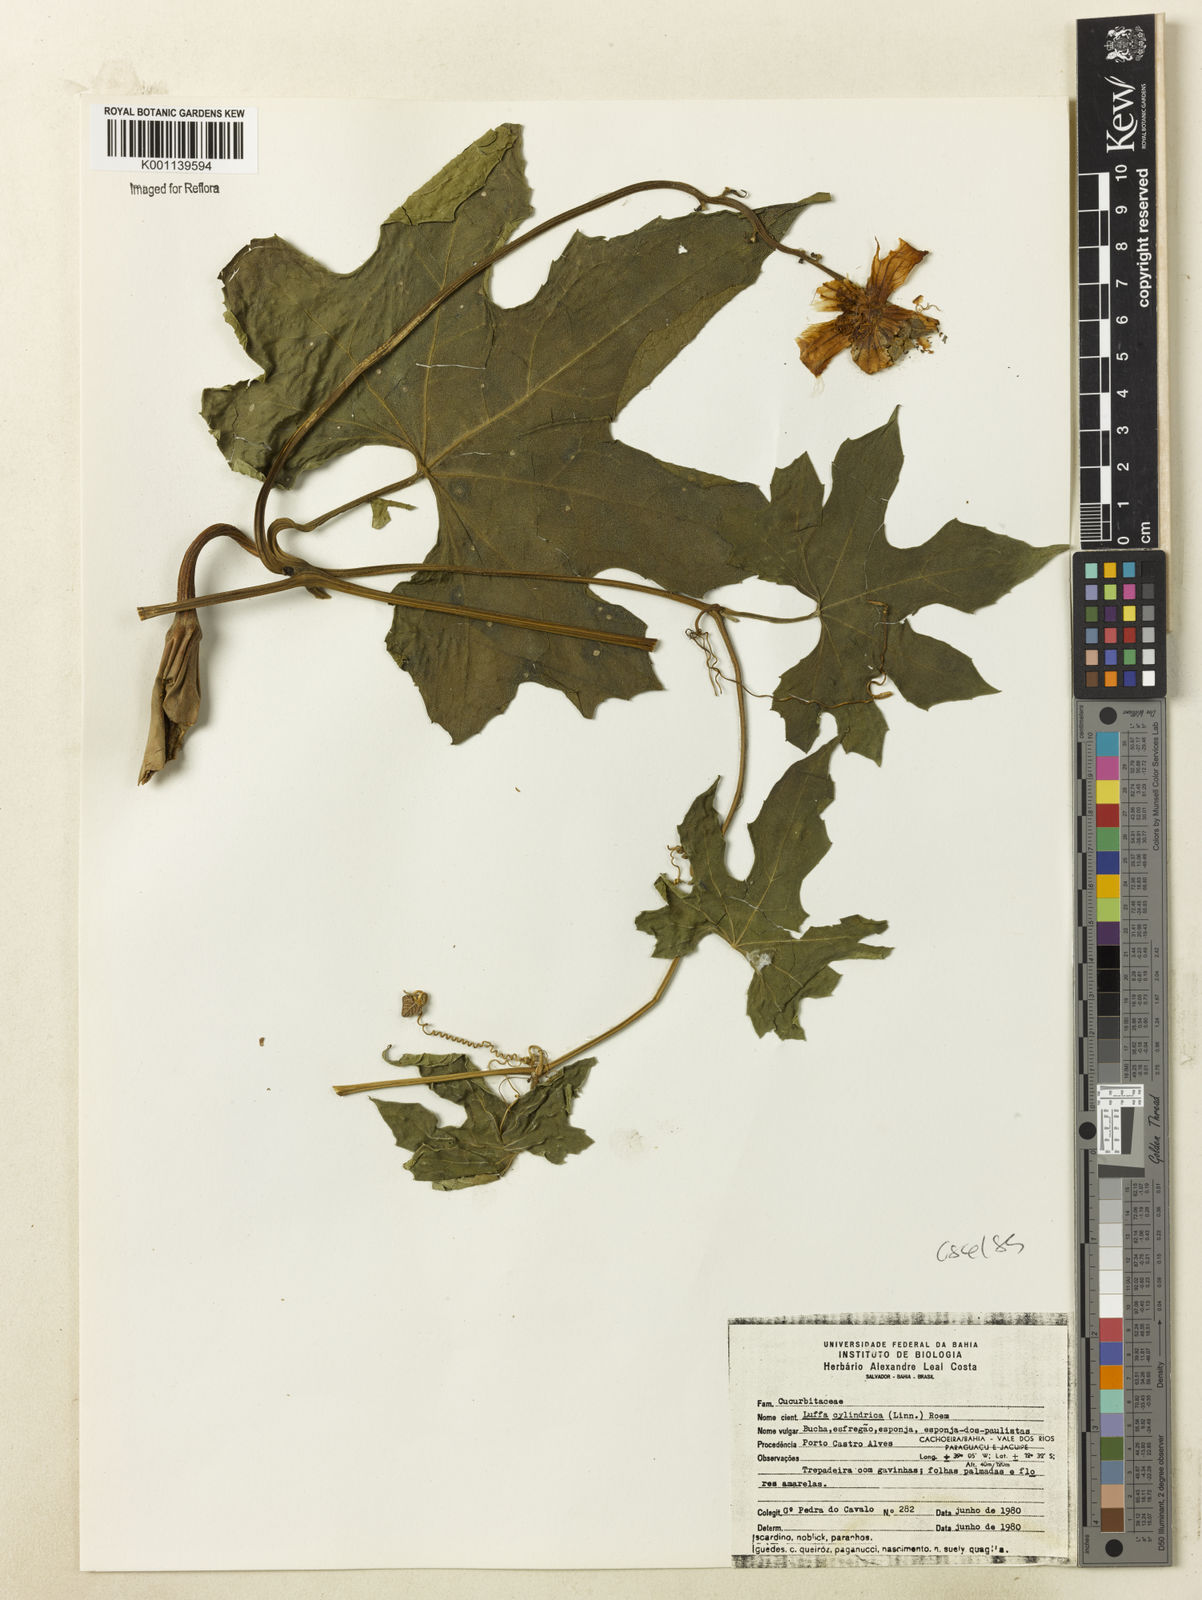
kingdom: Plantae
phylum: Tracheophyta
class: Magnoliopsida
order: Cucurbitales
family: Cucurbitaceae
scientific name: Cucurbitaceae
